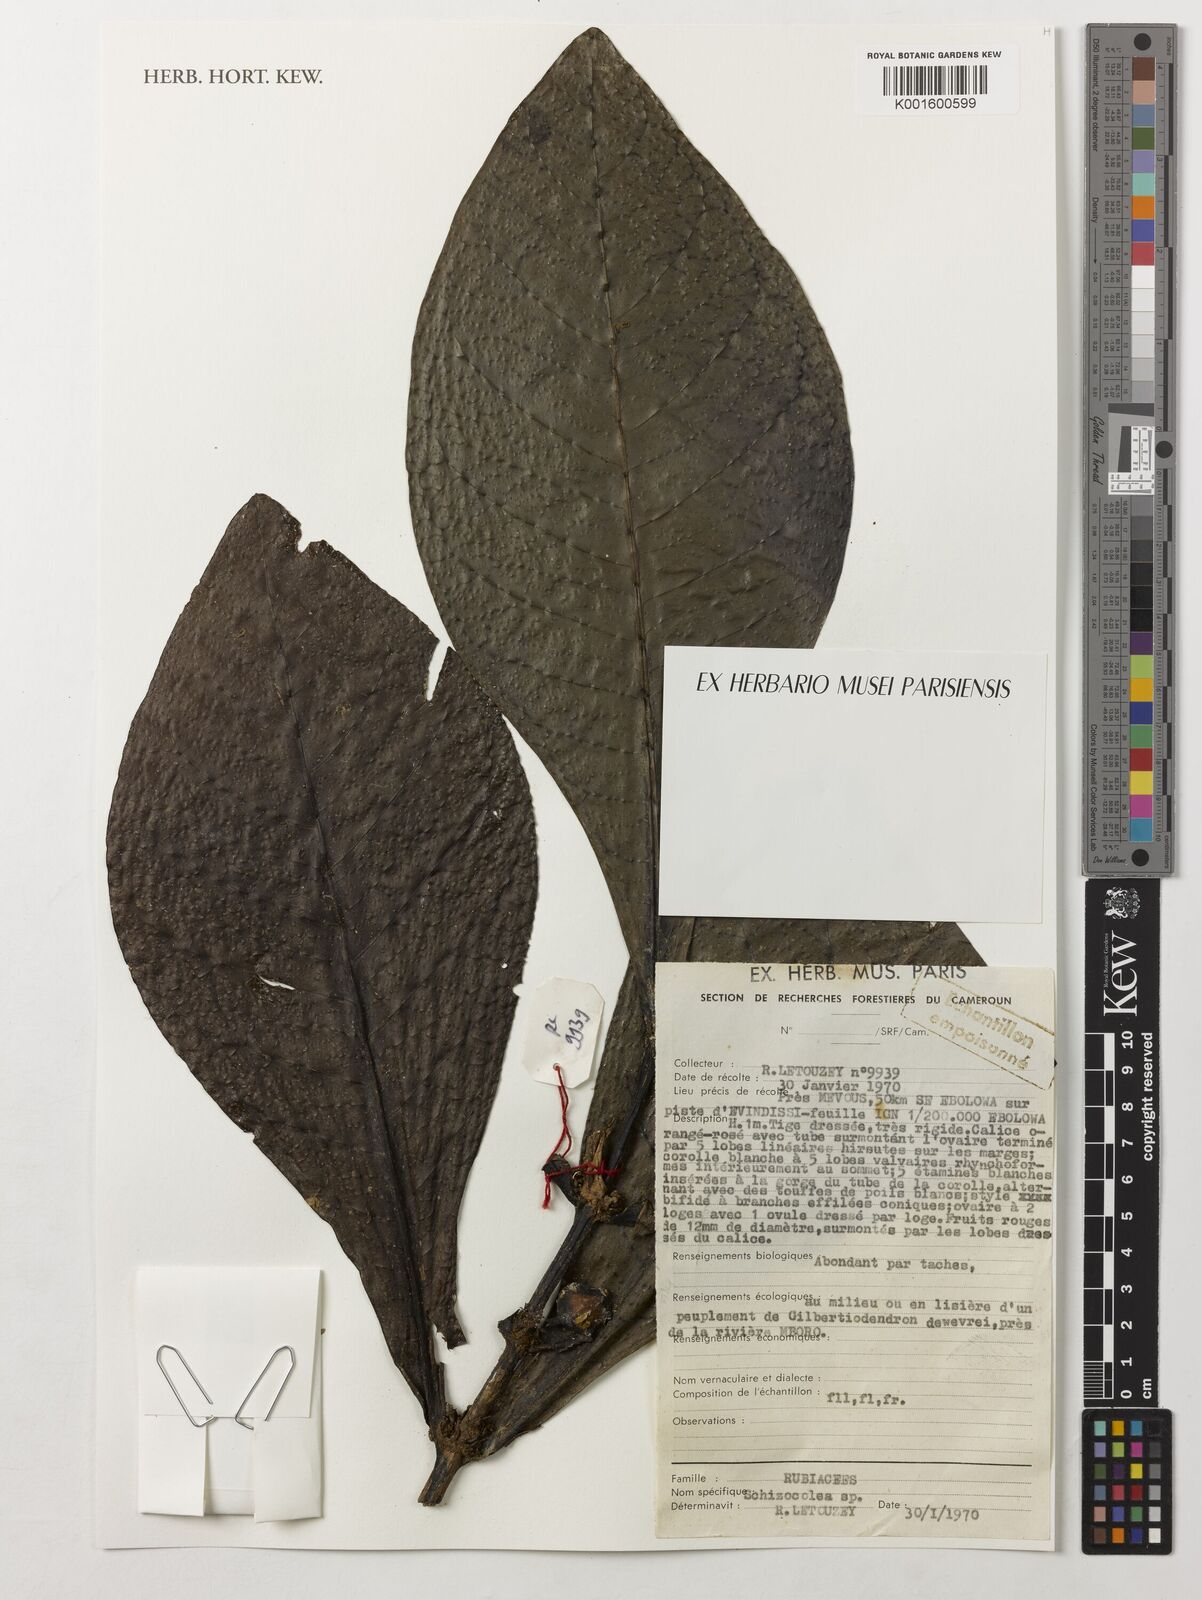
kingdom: Plantae
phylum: Tracheophyta
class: Magnoliopsida
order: Gentianales
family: Rubiaceae
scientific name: Rubiaceae
